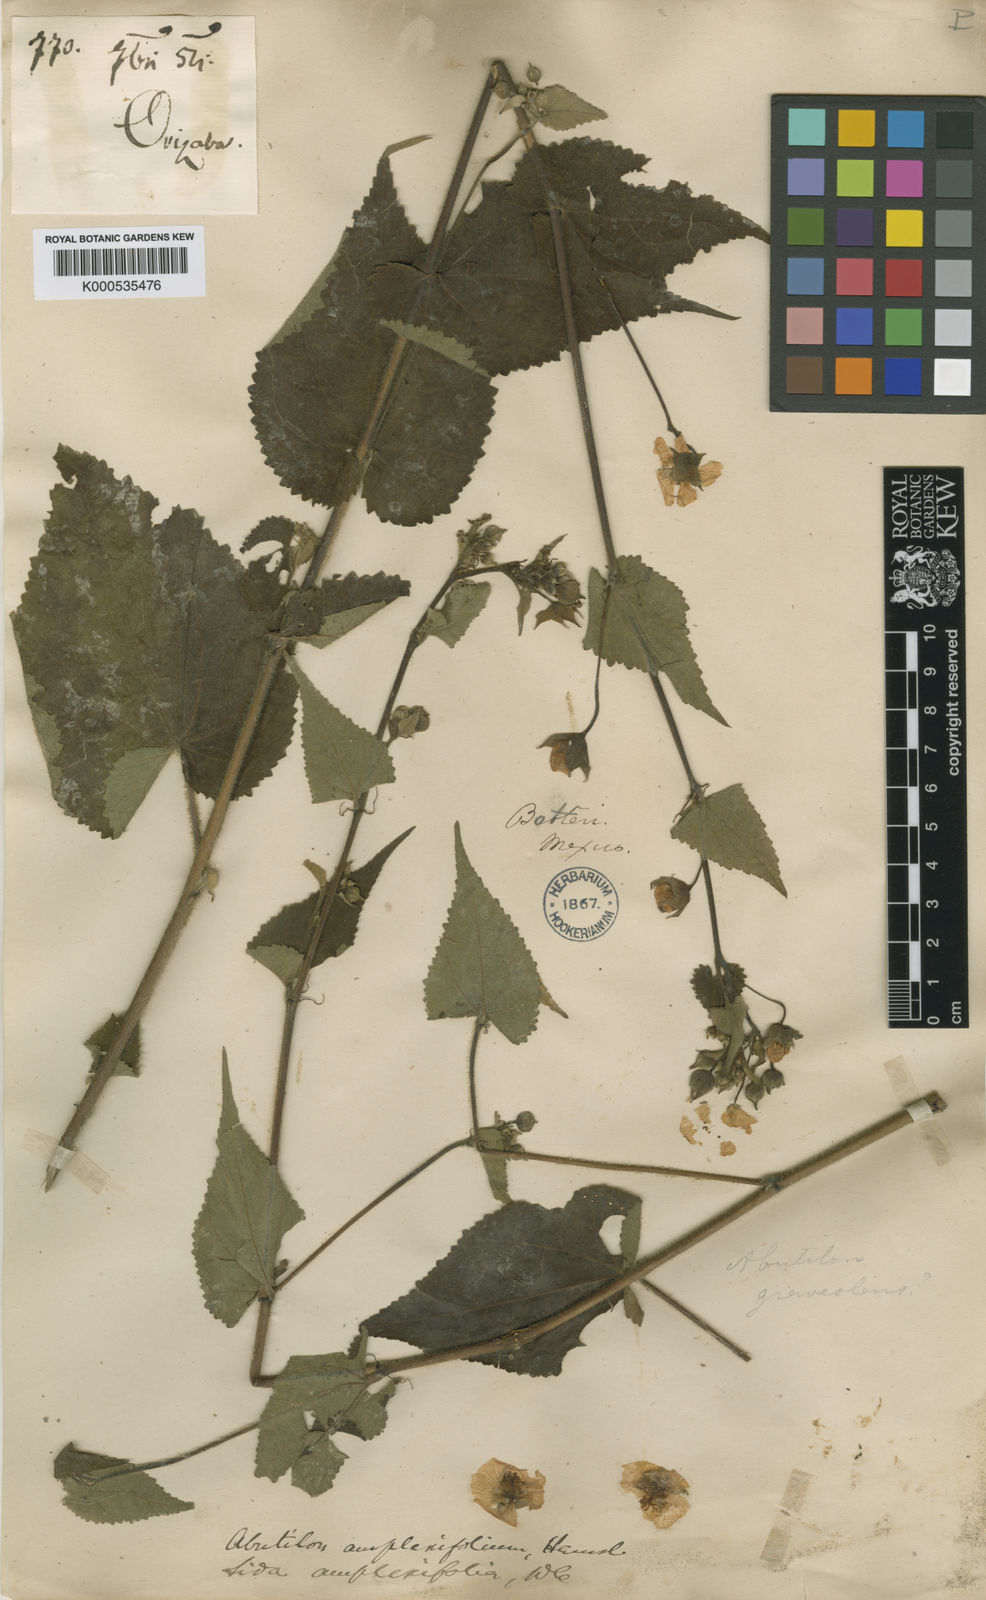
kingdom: Plantae
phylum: Tracheophyta
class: Magnoliopsida
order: Malvales
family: Malvaceae
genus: Hochreutinera
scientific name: Hochreutinera amplexifolia
